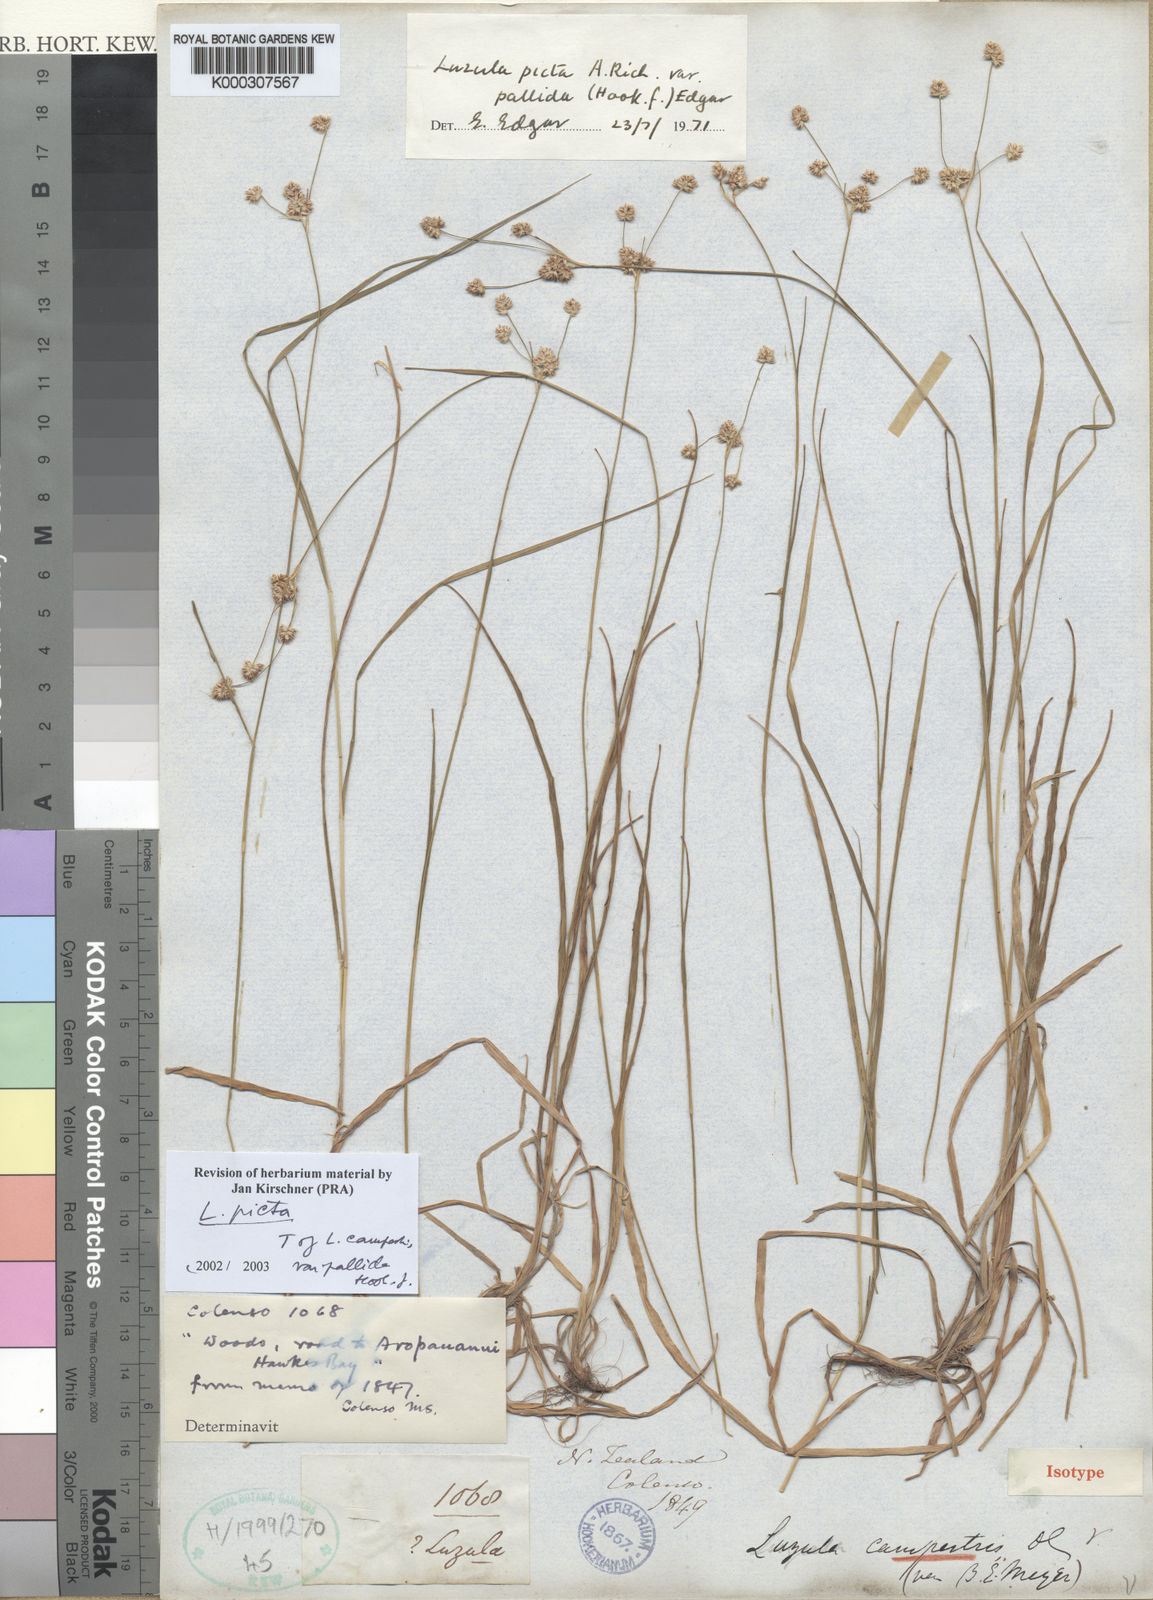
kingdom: Plantae
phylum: Tracheophyta
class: Liliopsida
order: Poales
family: Juncaceae
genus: Luzula
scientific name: Luzula campestris
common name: Field wood-rush
